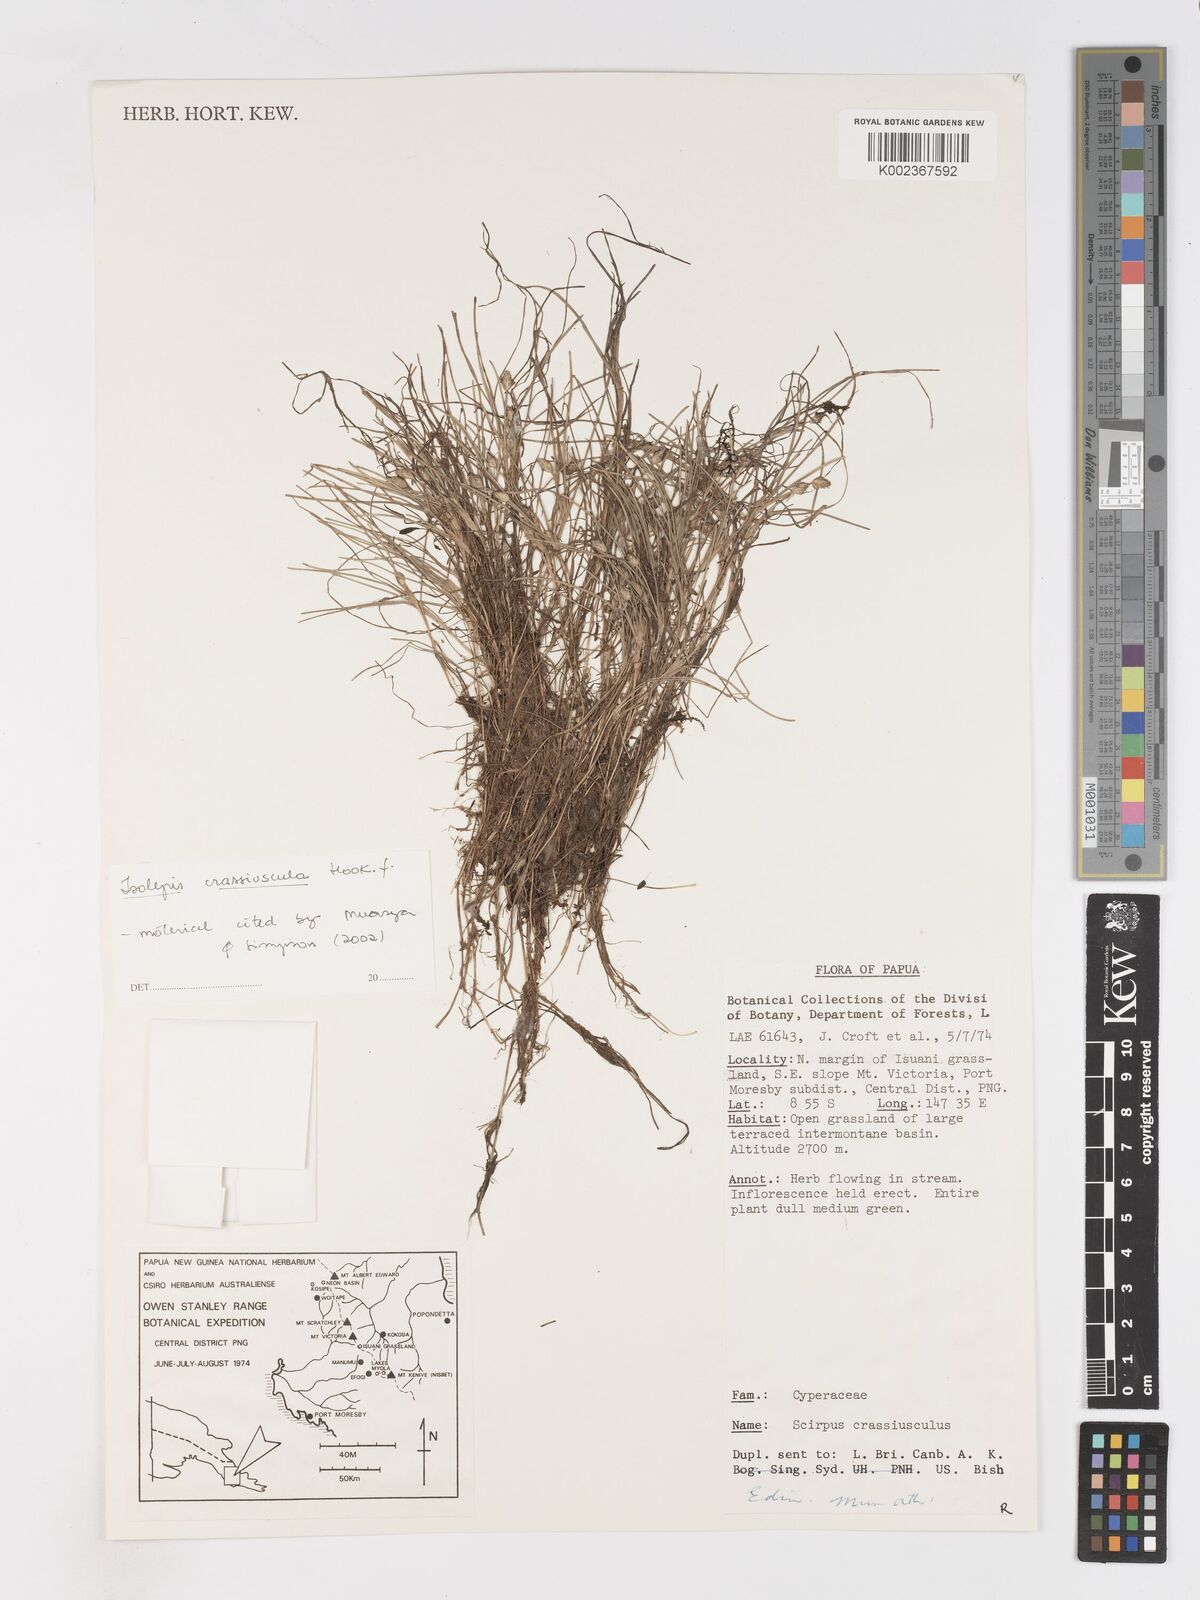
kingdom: Plantae
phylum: Tracheophyta
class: Liliopsida
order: Poales
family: Cyperaceae
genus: Isolepis
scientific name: Isolepis crassiuscula
